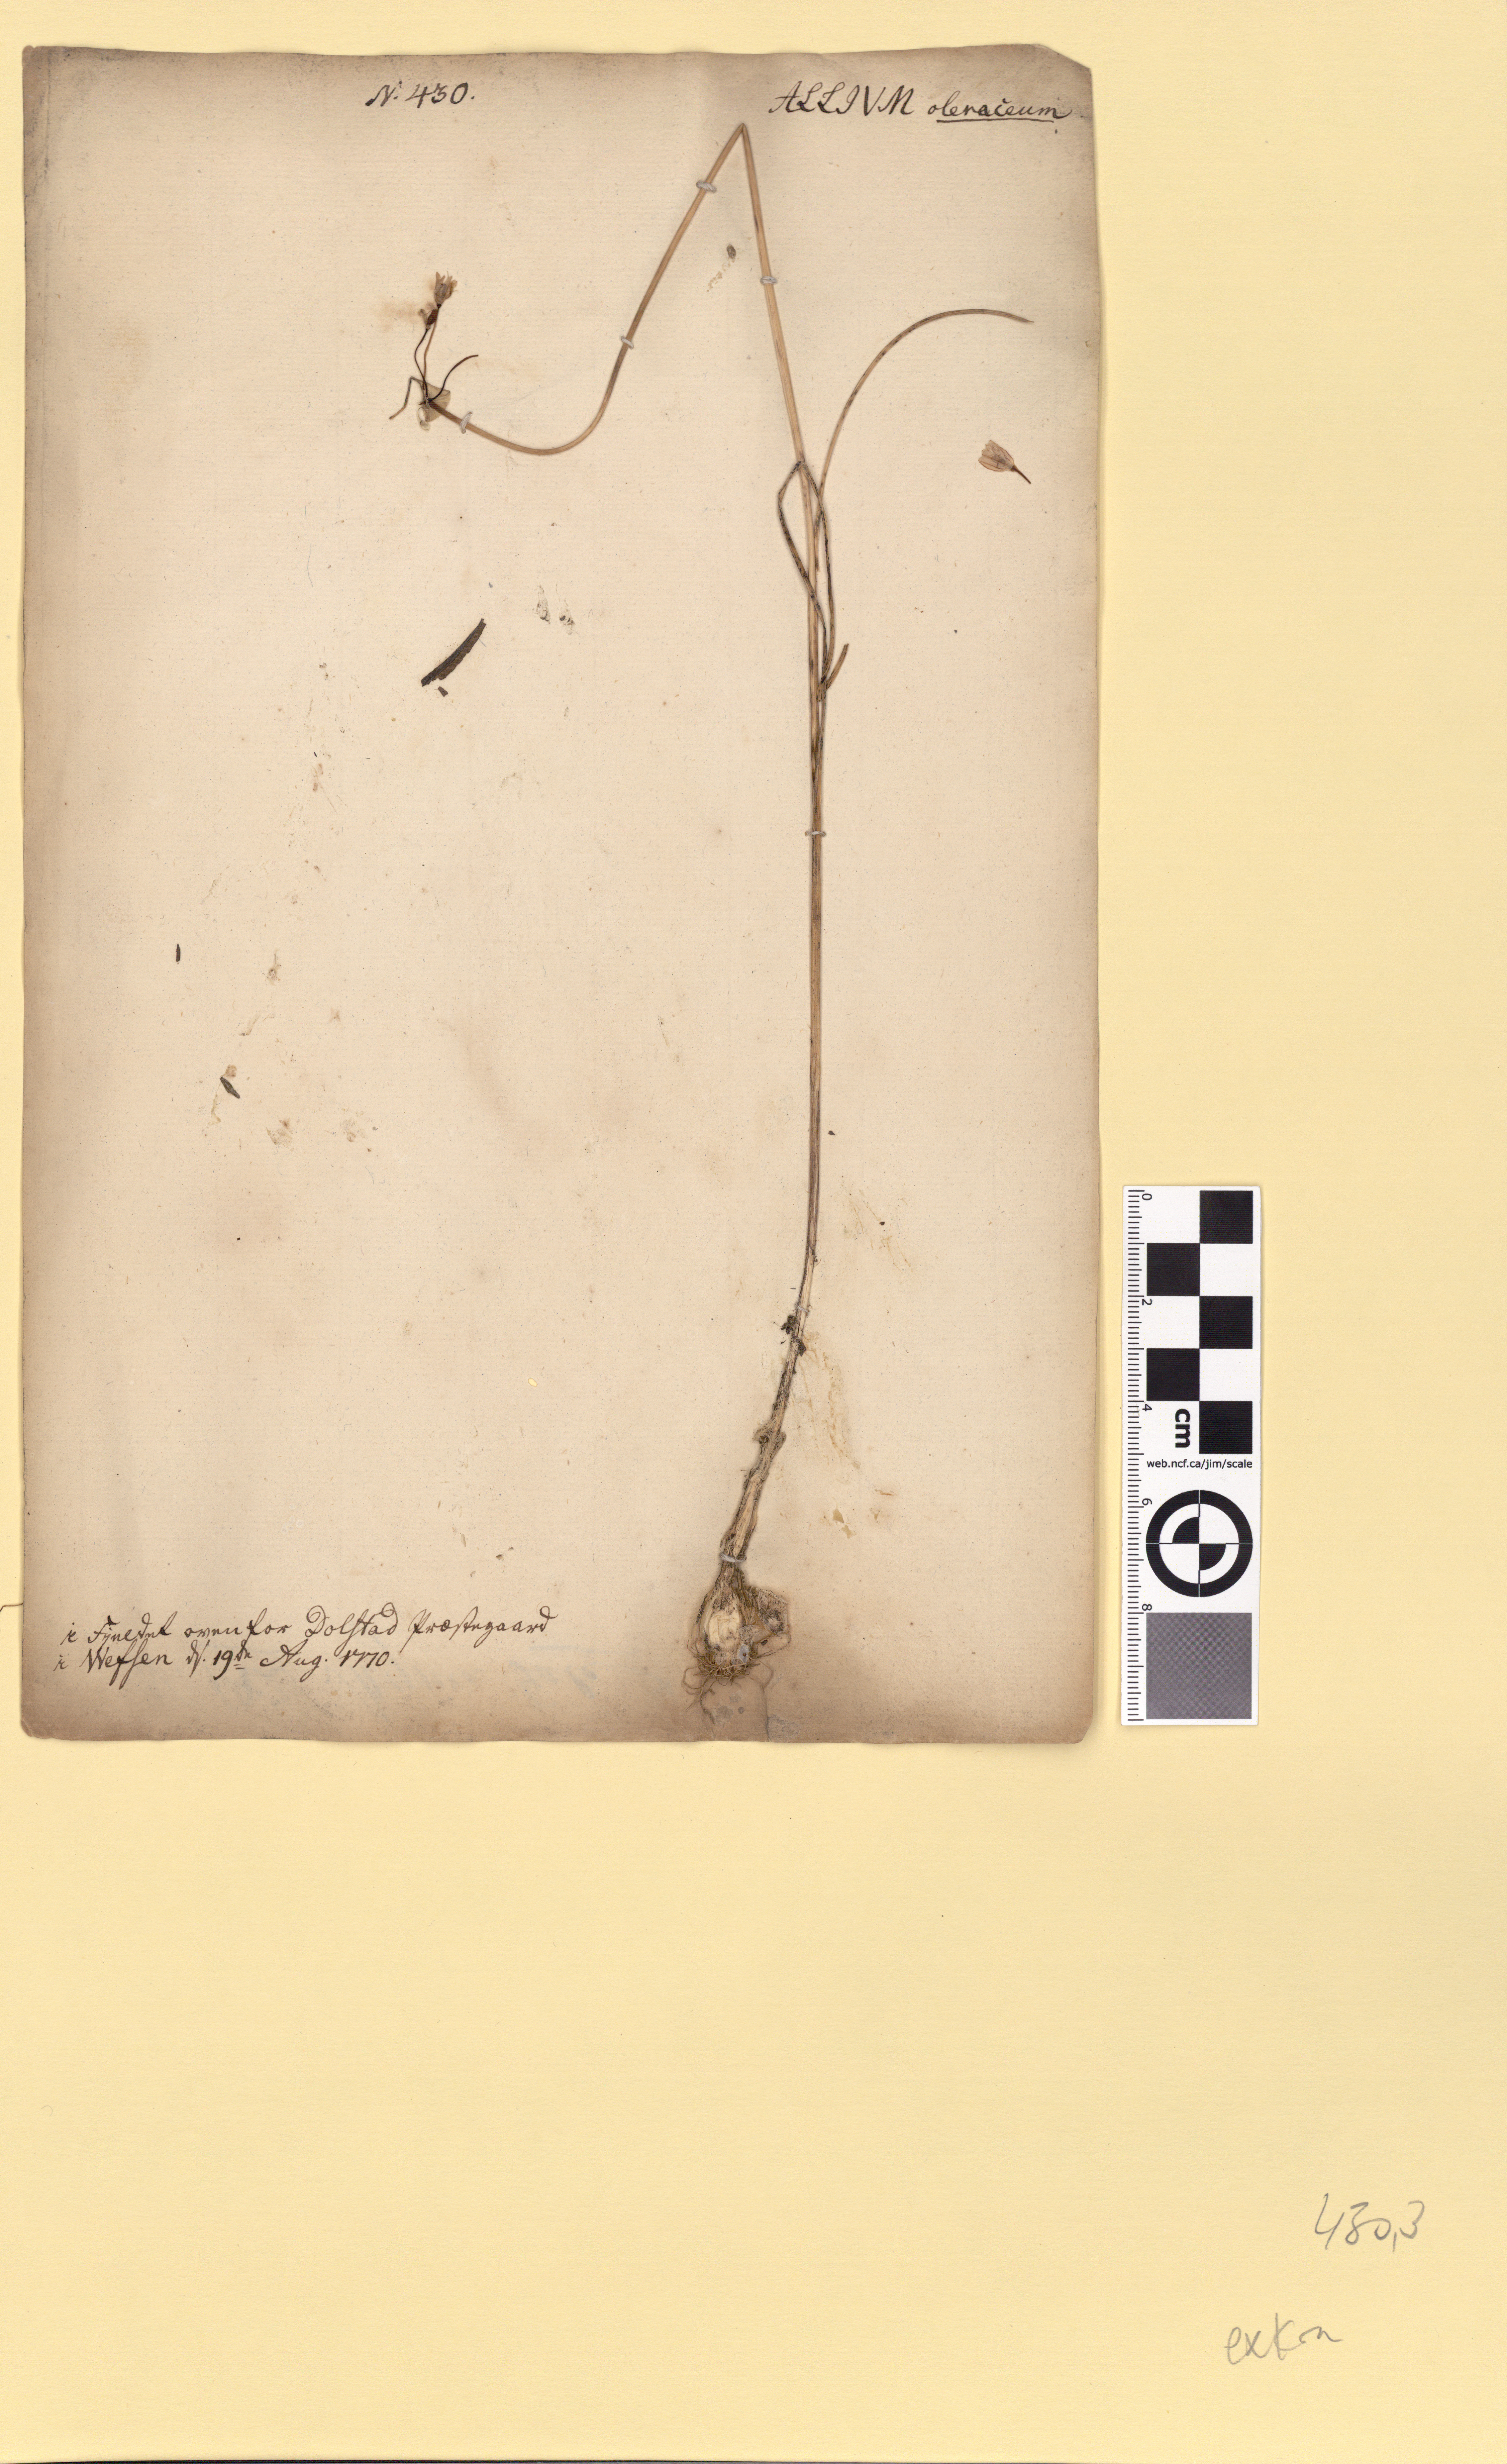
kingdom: Plantae
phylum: Tracheophyta
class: Liliopsida
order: Asparagales
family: Amaryllidaceae
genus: Allium
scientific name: Allium oleraceum
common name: Field garlic
